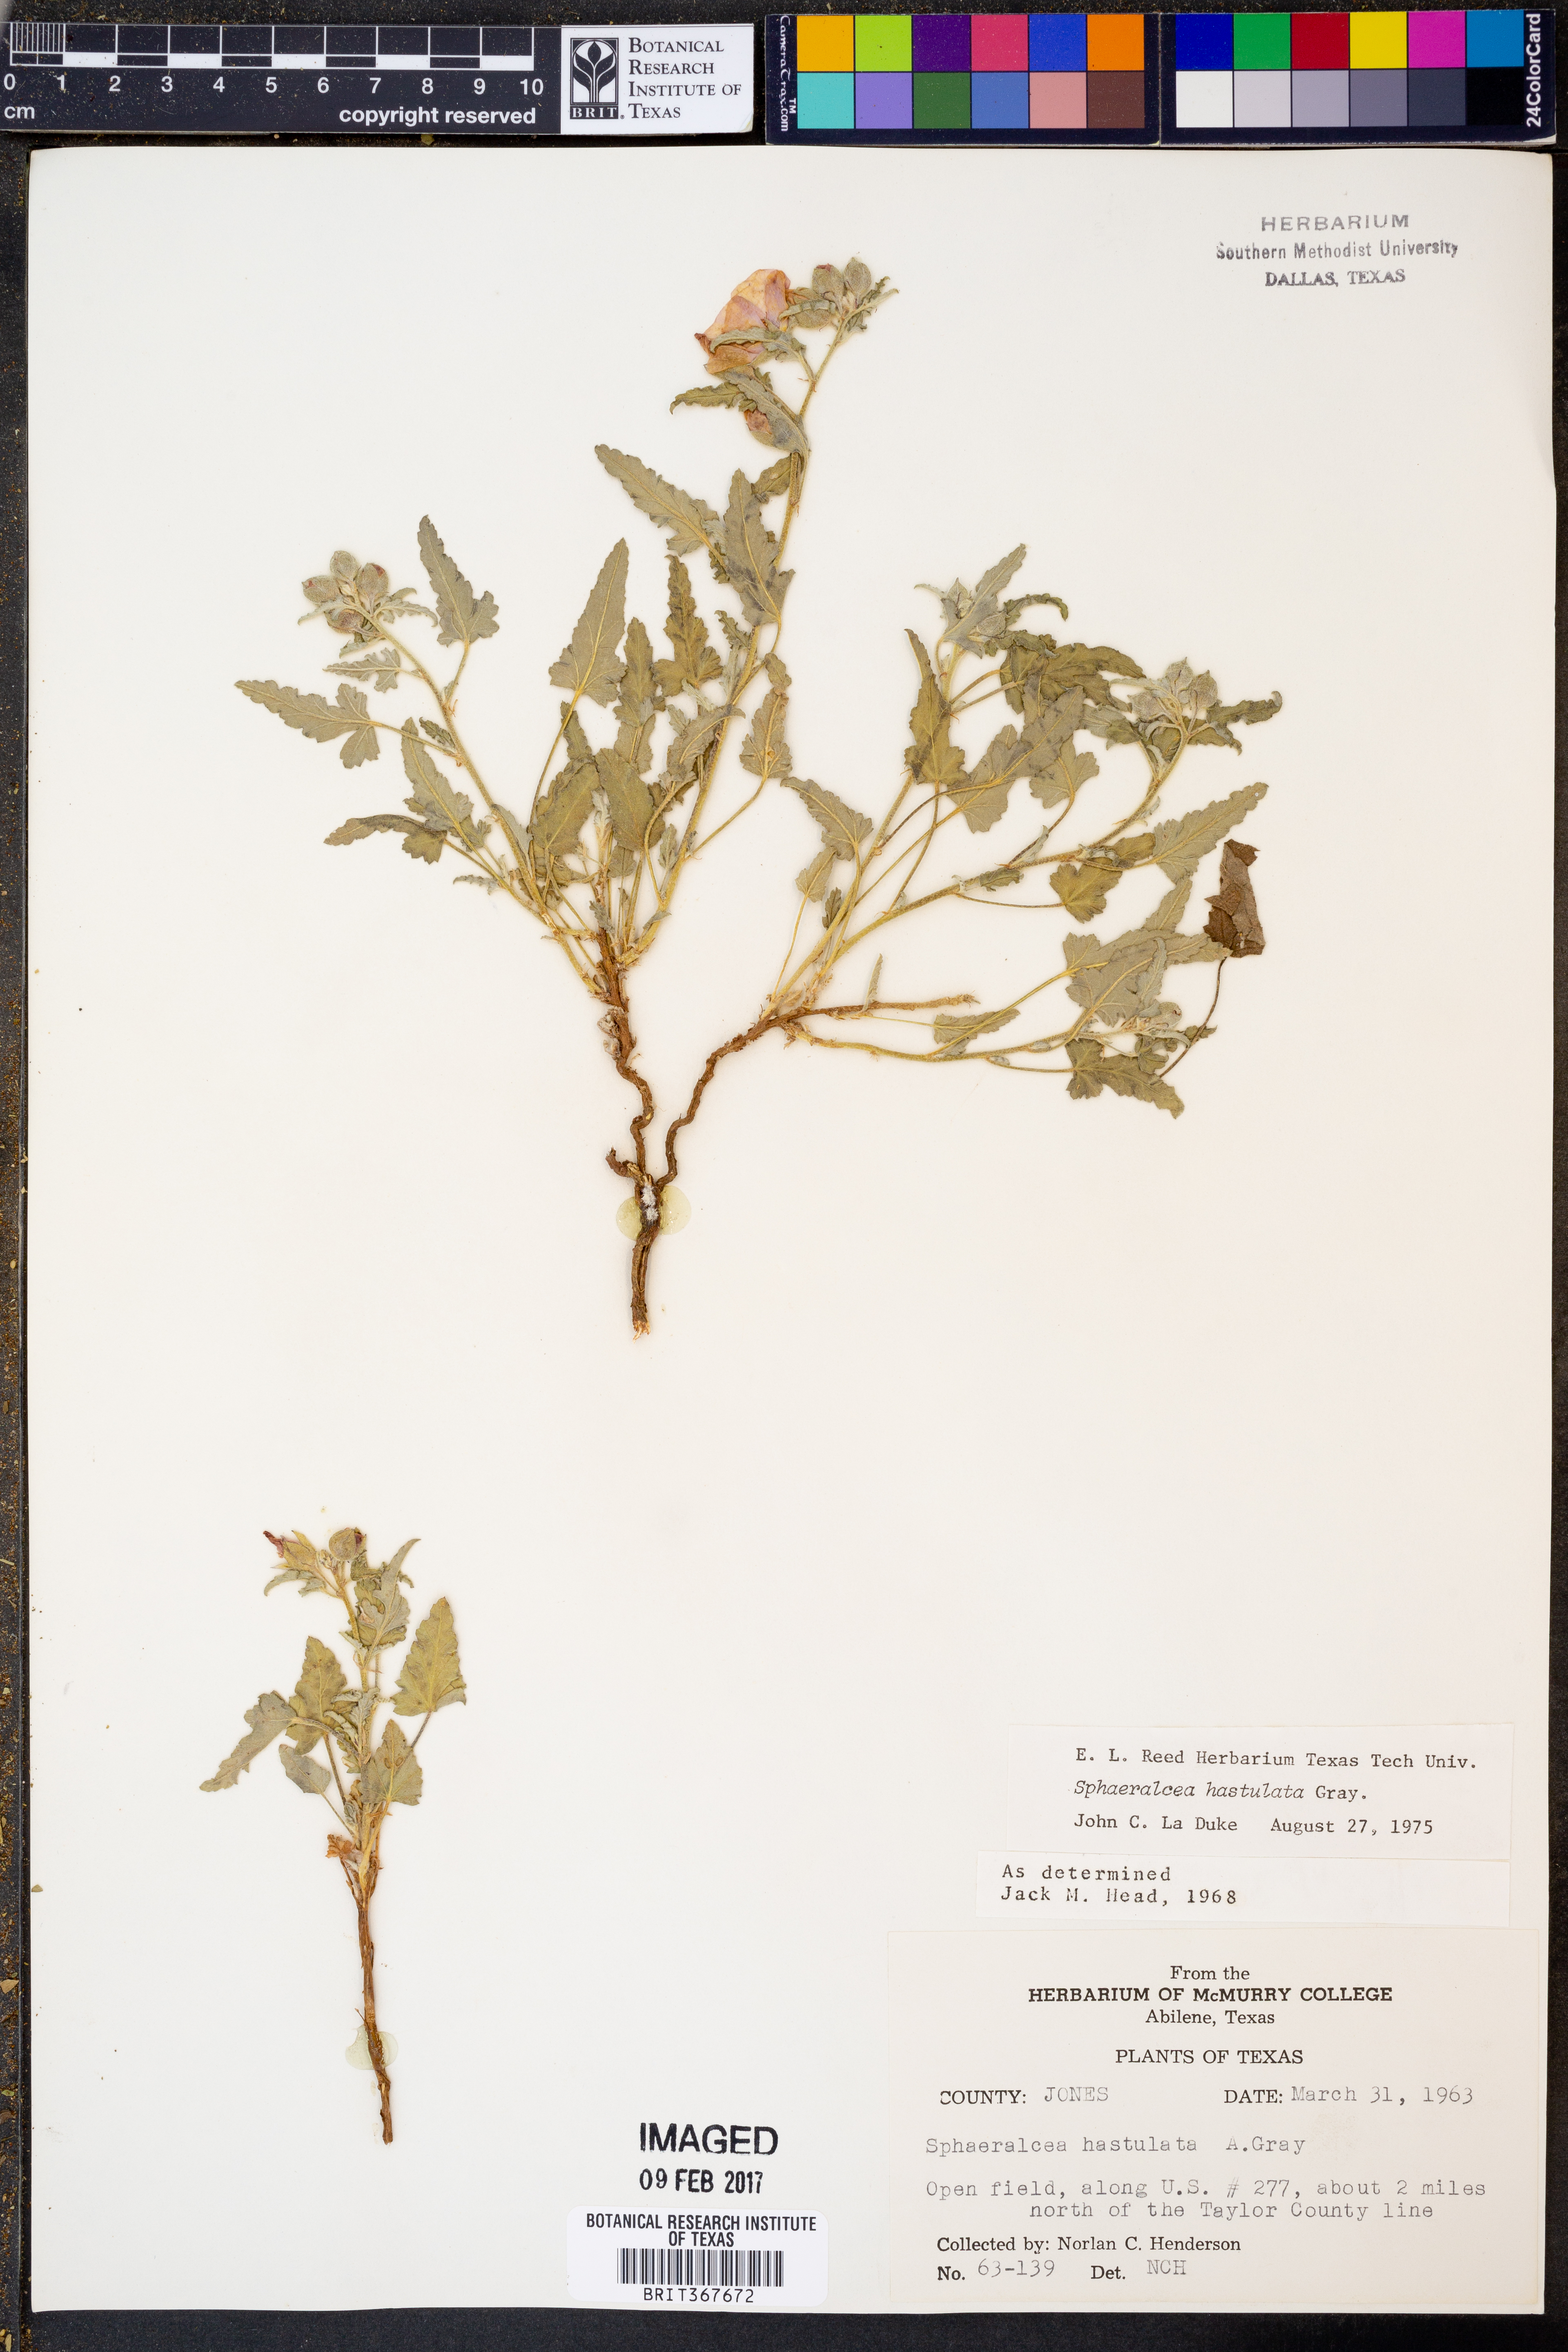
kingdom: Plantae
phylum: Tracheophyta
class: Magnoliopsida
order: Malvales
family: Malvaceae
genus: Sphaeralcea
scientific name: Sphaeralcea hastulata
